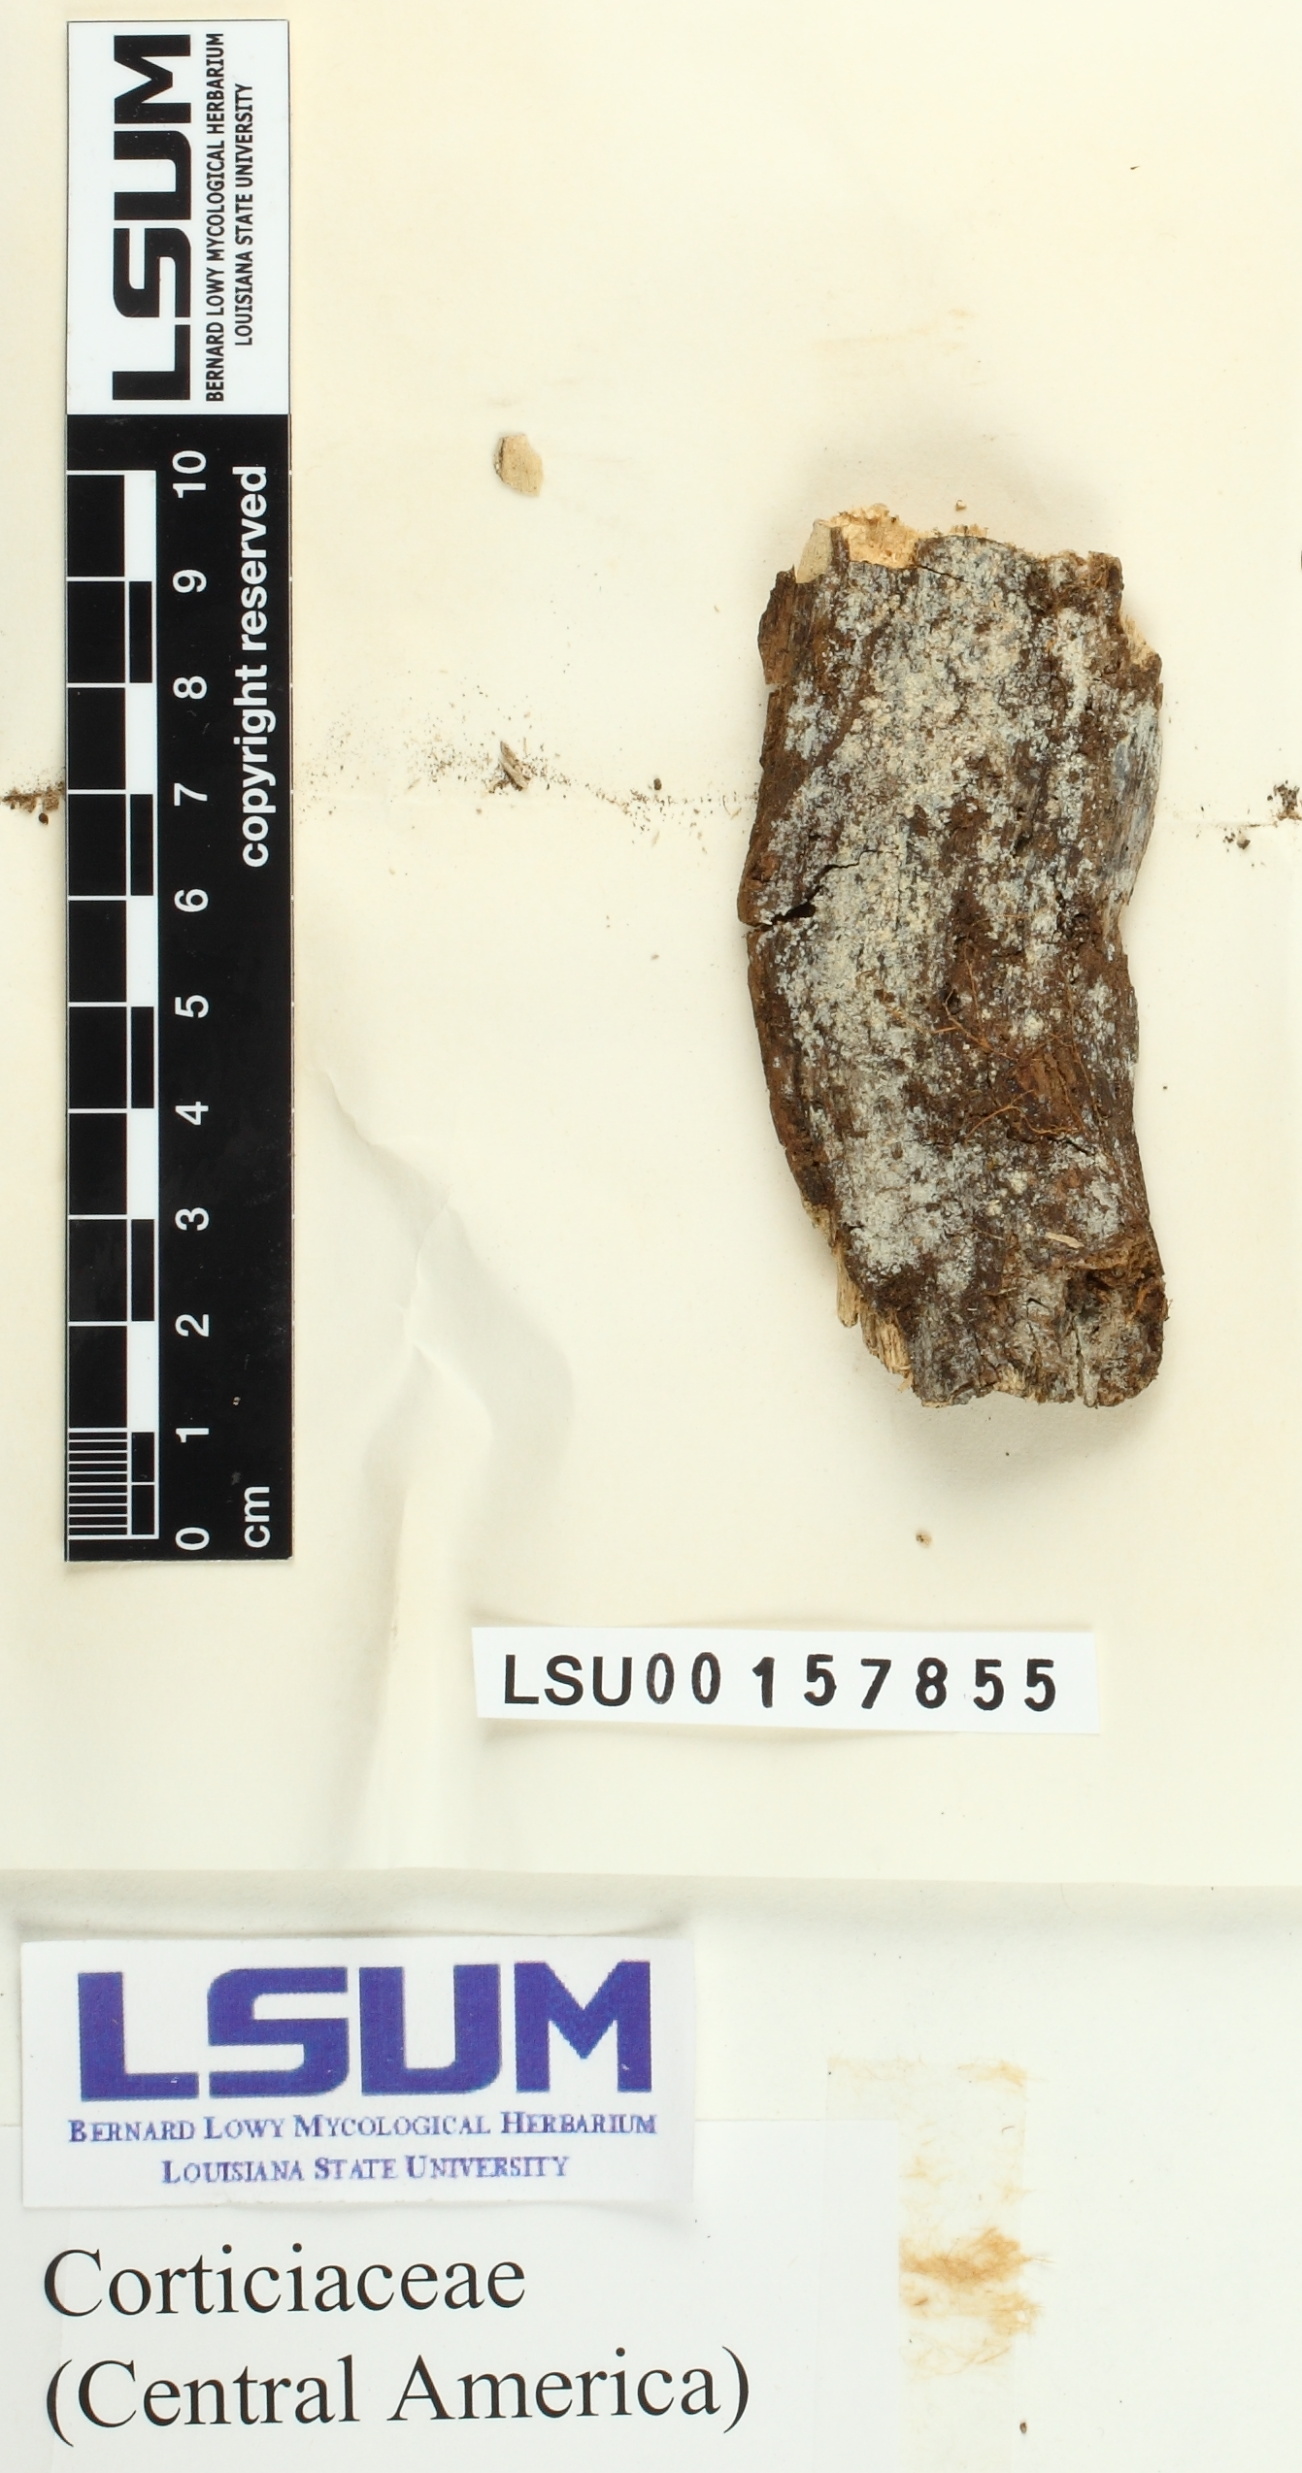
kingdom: Fungi
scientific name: Fungi
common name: Fungi
